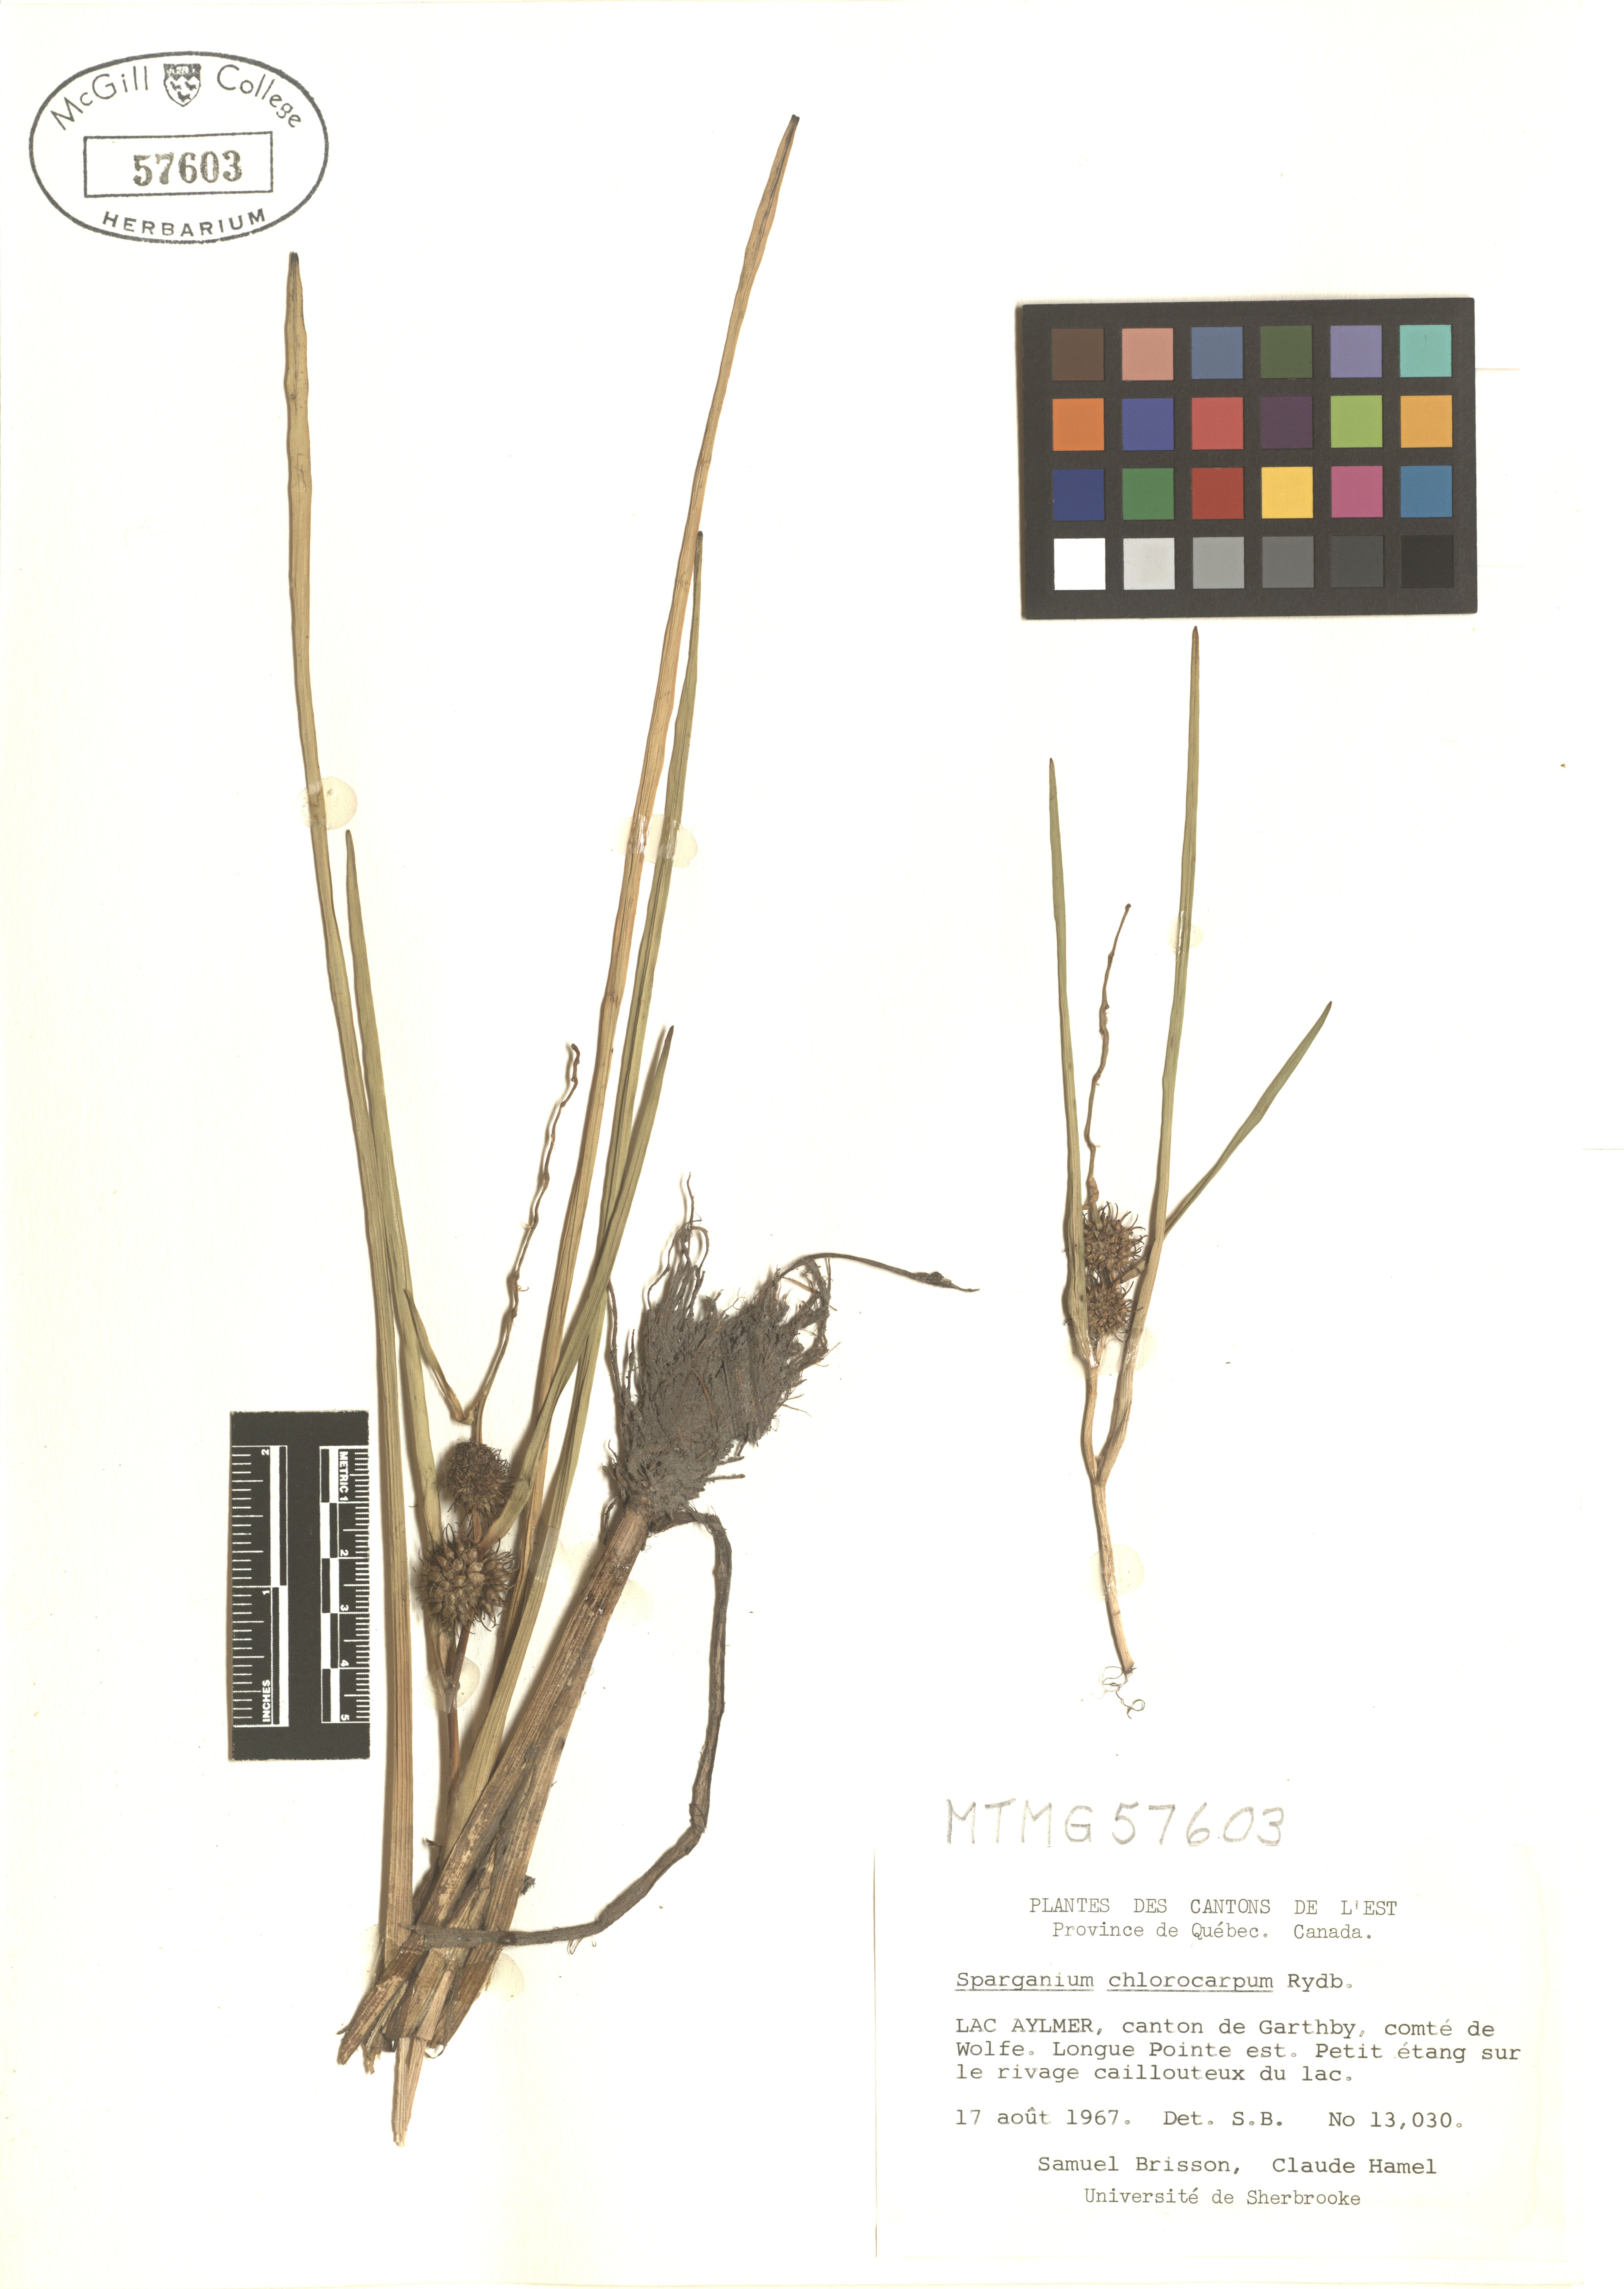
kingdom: Plantae
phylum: Tracheophyta
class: Liliopsida
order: Poales
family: Typhaceae
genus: Sparganium
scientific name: Sparganium emersum
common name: Unbranched bur-reed
